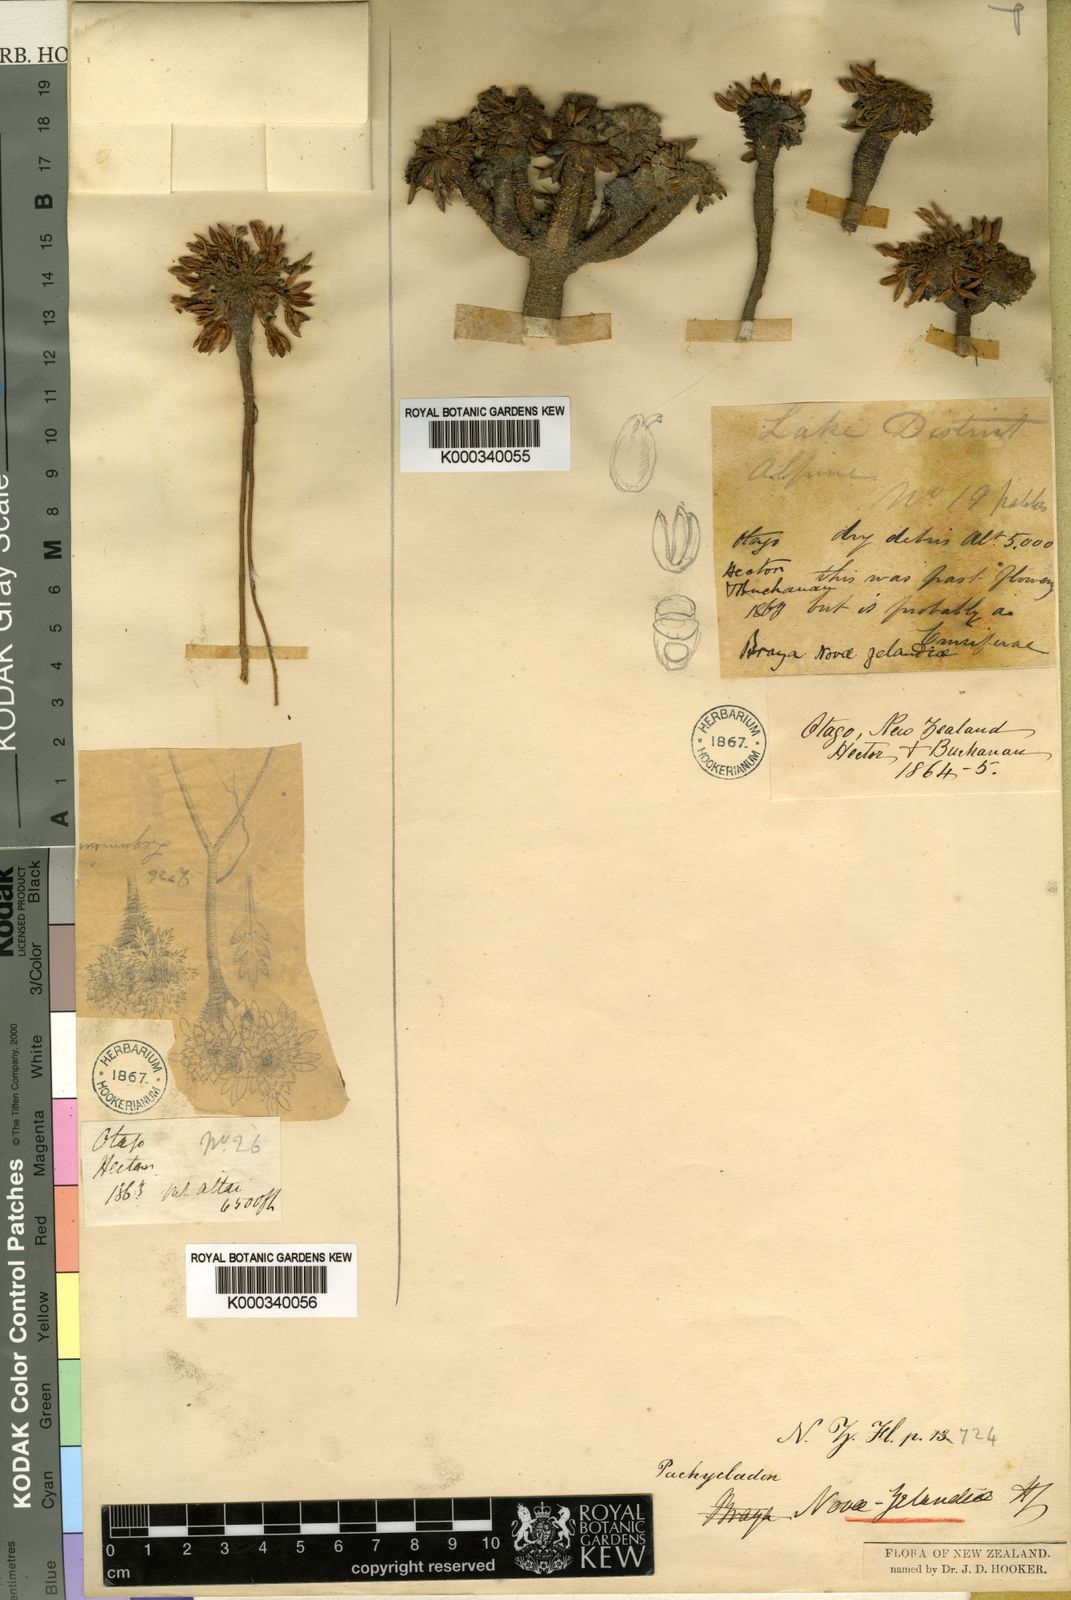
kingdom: Plantae
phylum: Tracheophyta
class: Magnoliopsida
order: Brassicales
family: Brassicaceae
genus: Pachycladon
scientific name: Pachycladon novae-zelandiae
